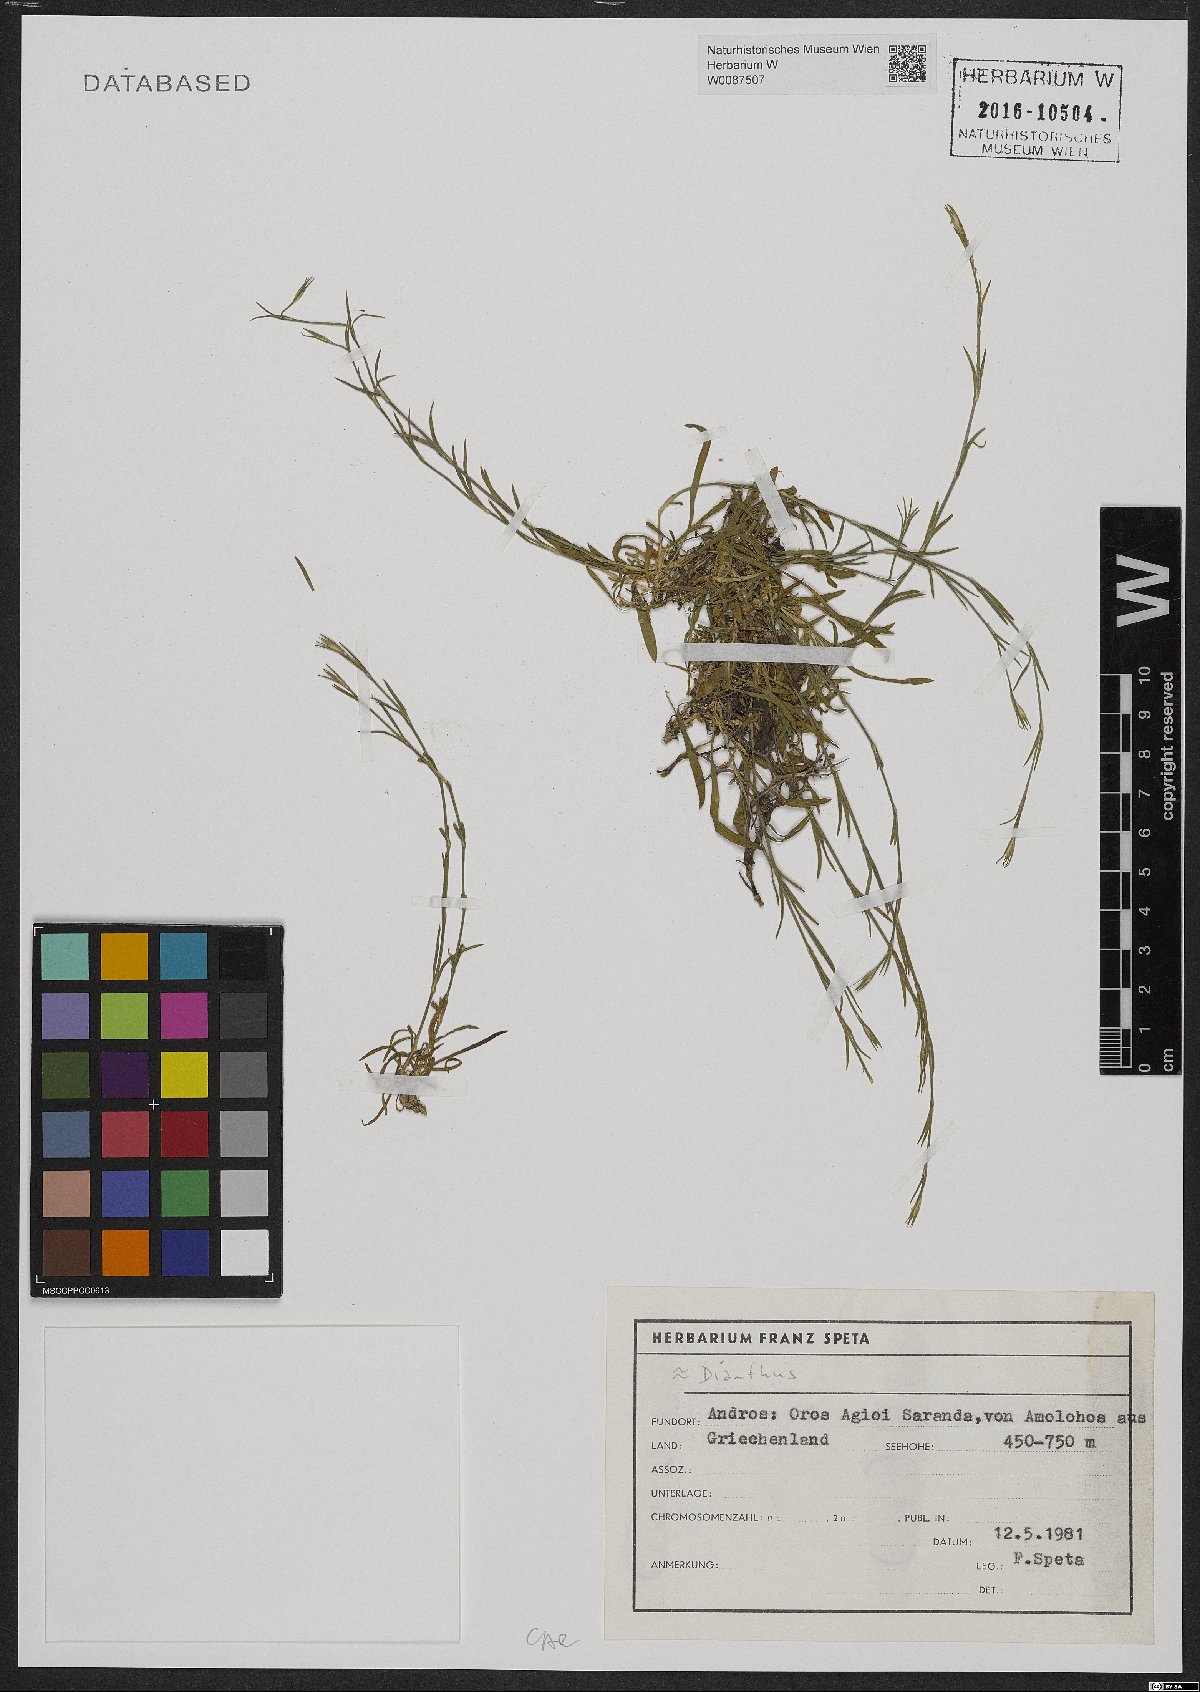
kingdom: Plantae
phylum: Tracheophyta
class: Magnoliopsida
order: Caryophyllales
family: Caryophyllaceae
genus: Dianthus
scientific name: Dianthus
